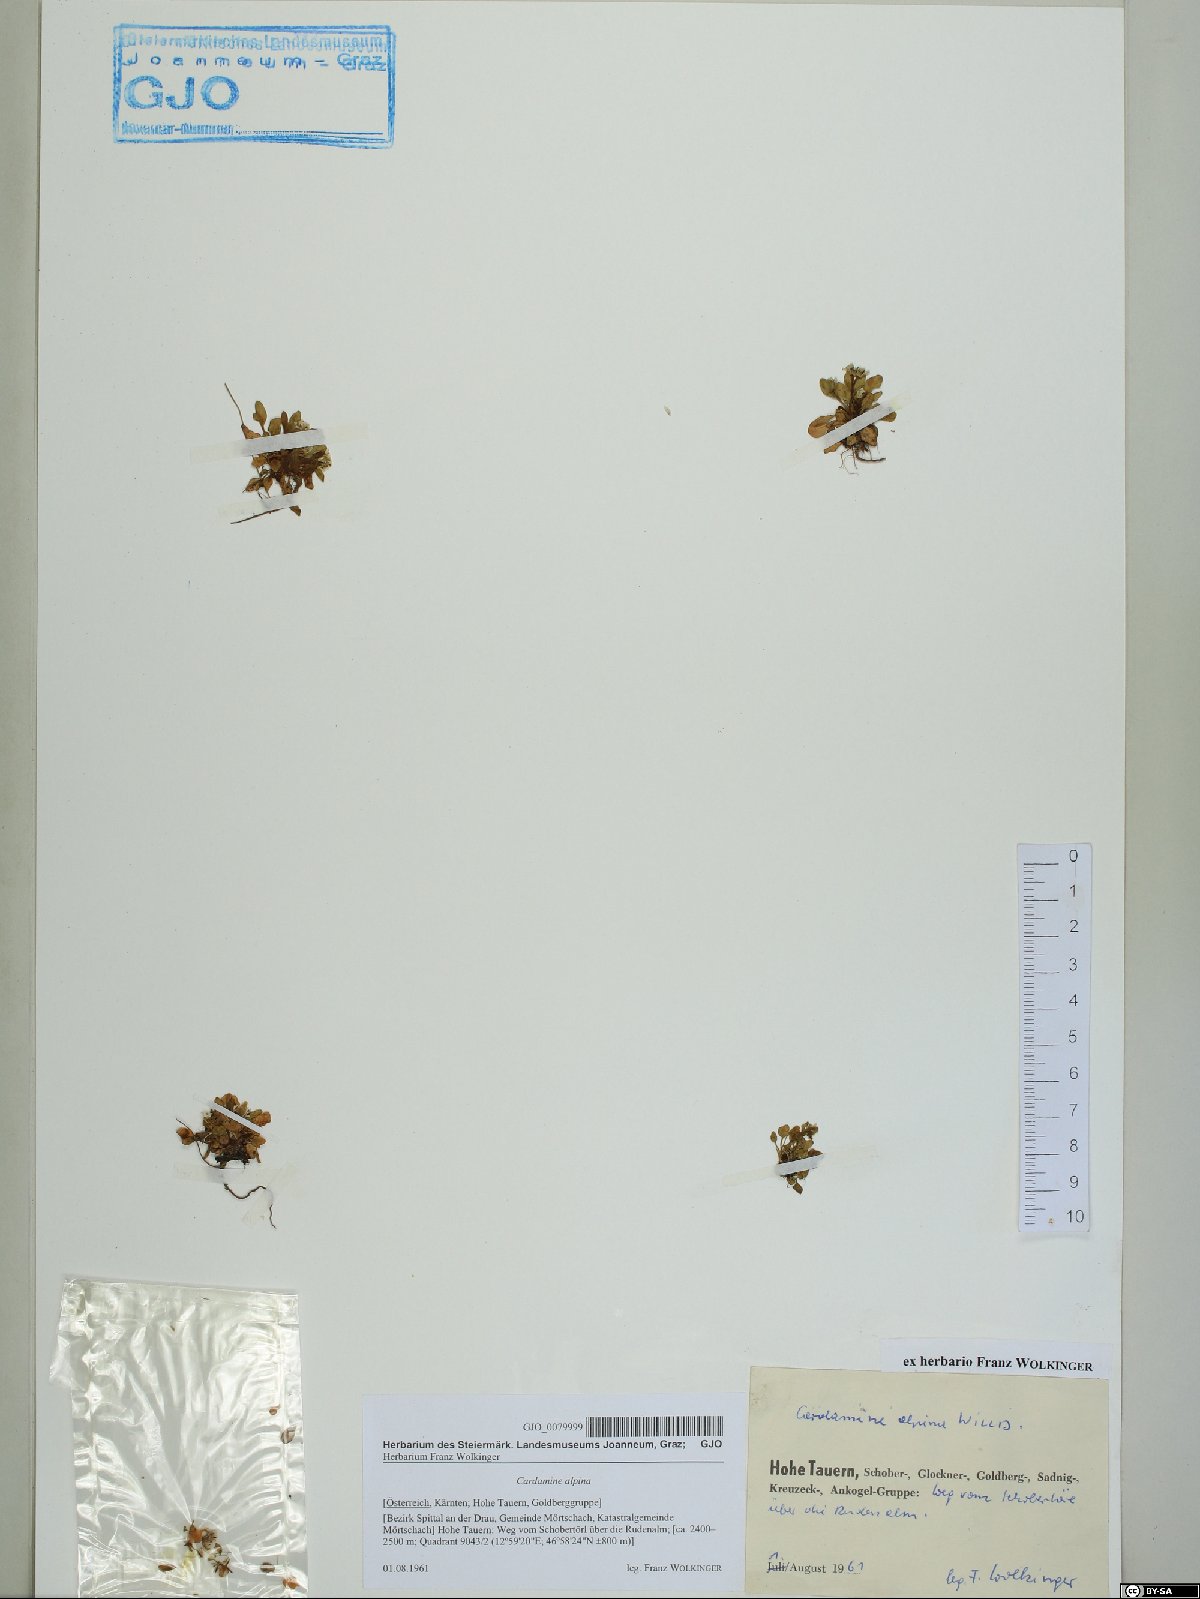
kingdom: Plantae
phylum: Tracheophyta
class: Magnoliopsida
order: Brassicales
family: Brassicaceae
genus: Cardamine
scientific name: Cardamine bellidifolia
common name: Alpine bittercress
